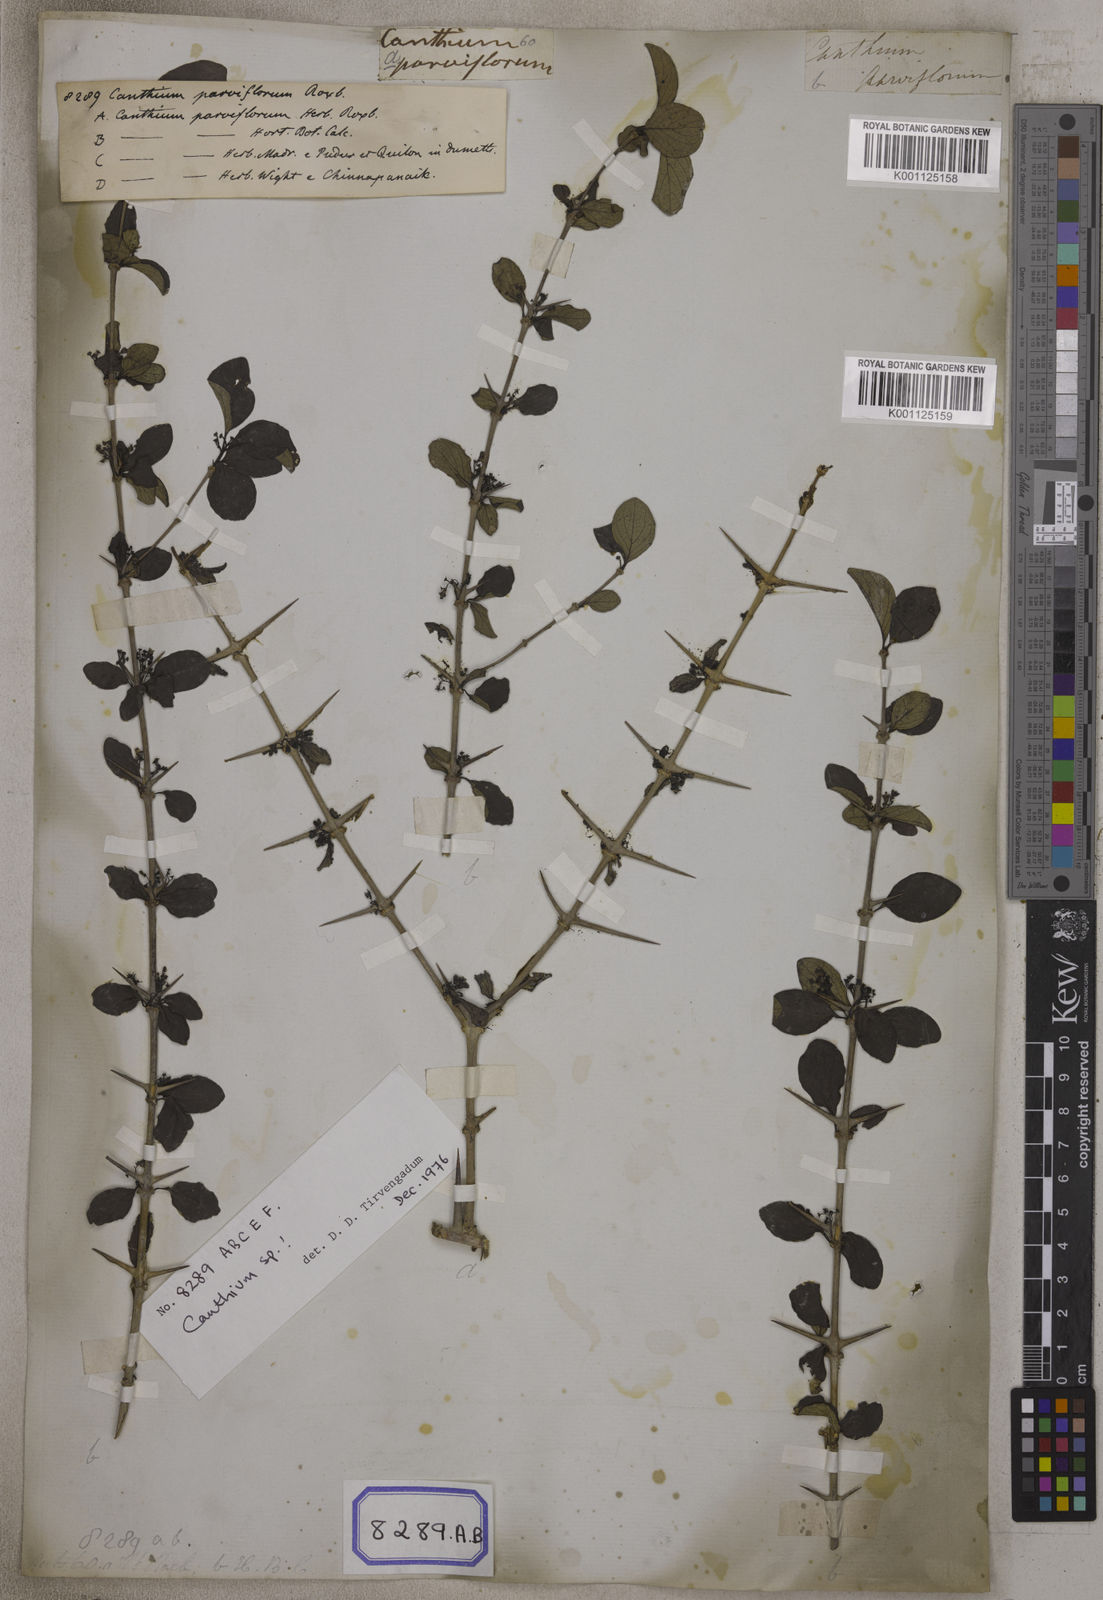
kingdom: Plantae
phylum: Tracheophyta
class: Magnoliopsida
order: Gentianales
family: Rubiaceae
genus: Canthium
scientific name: Canthium
